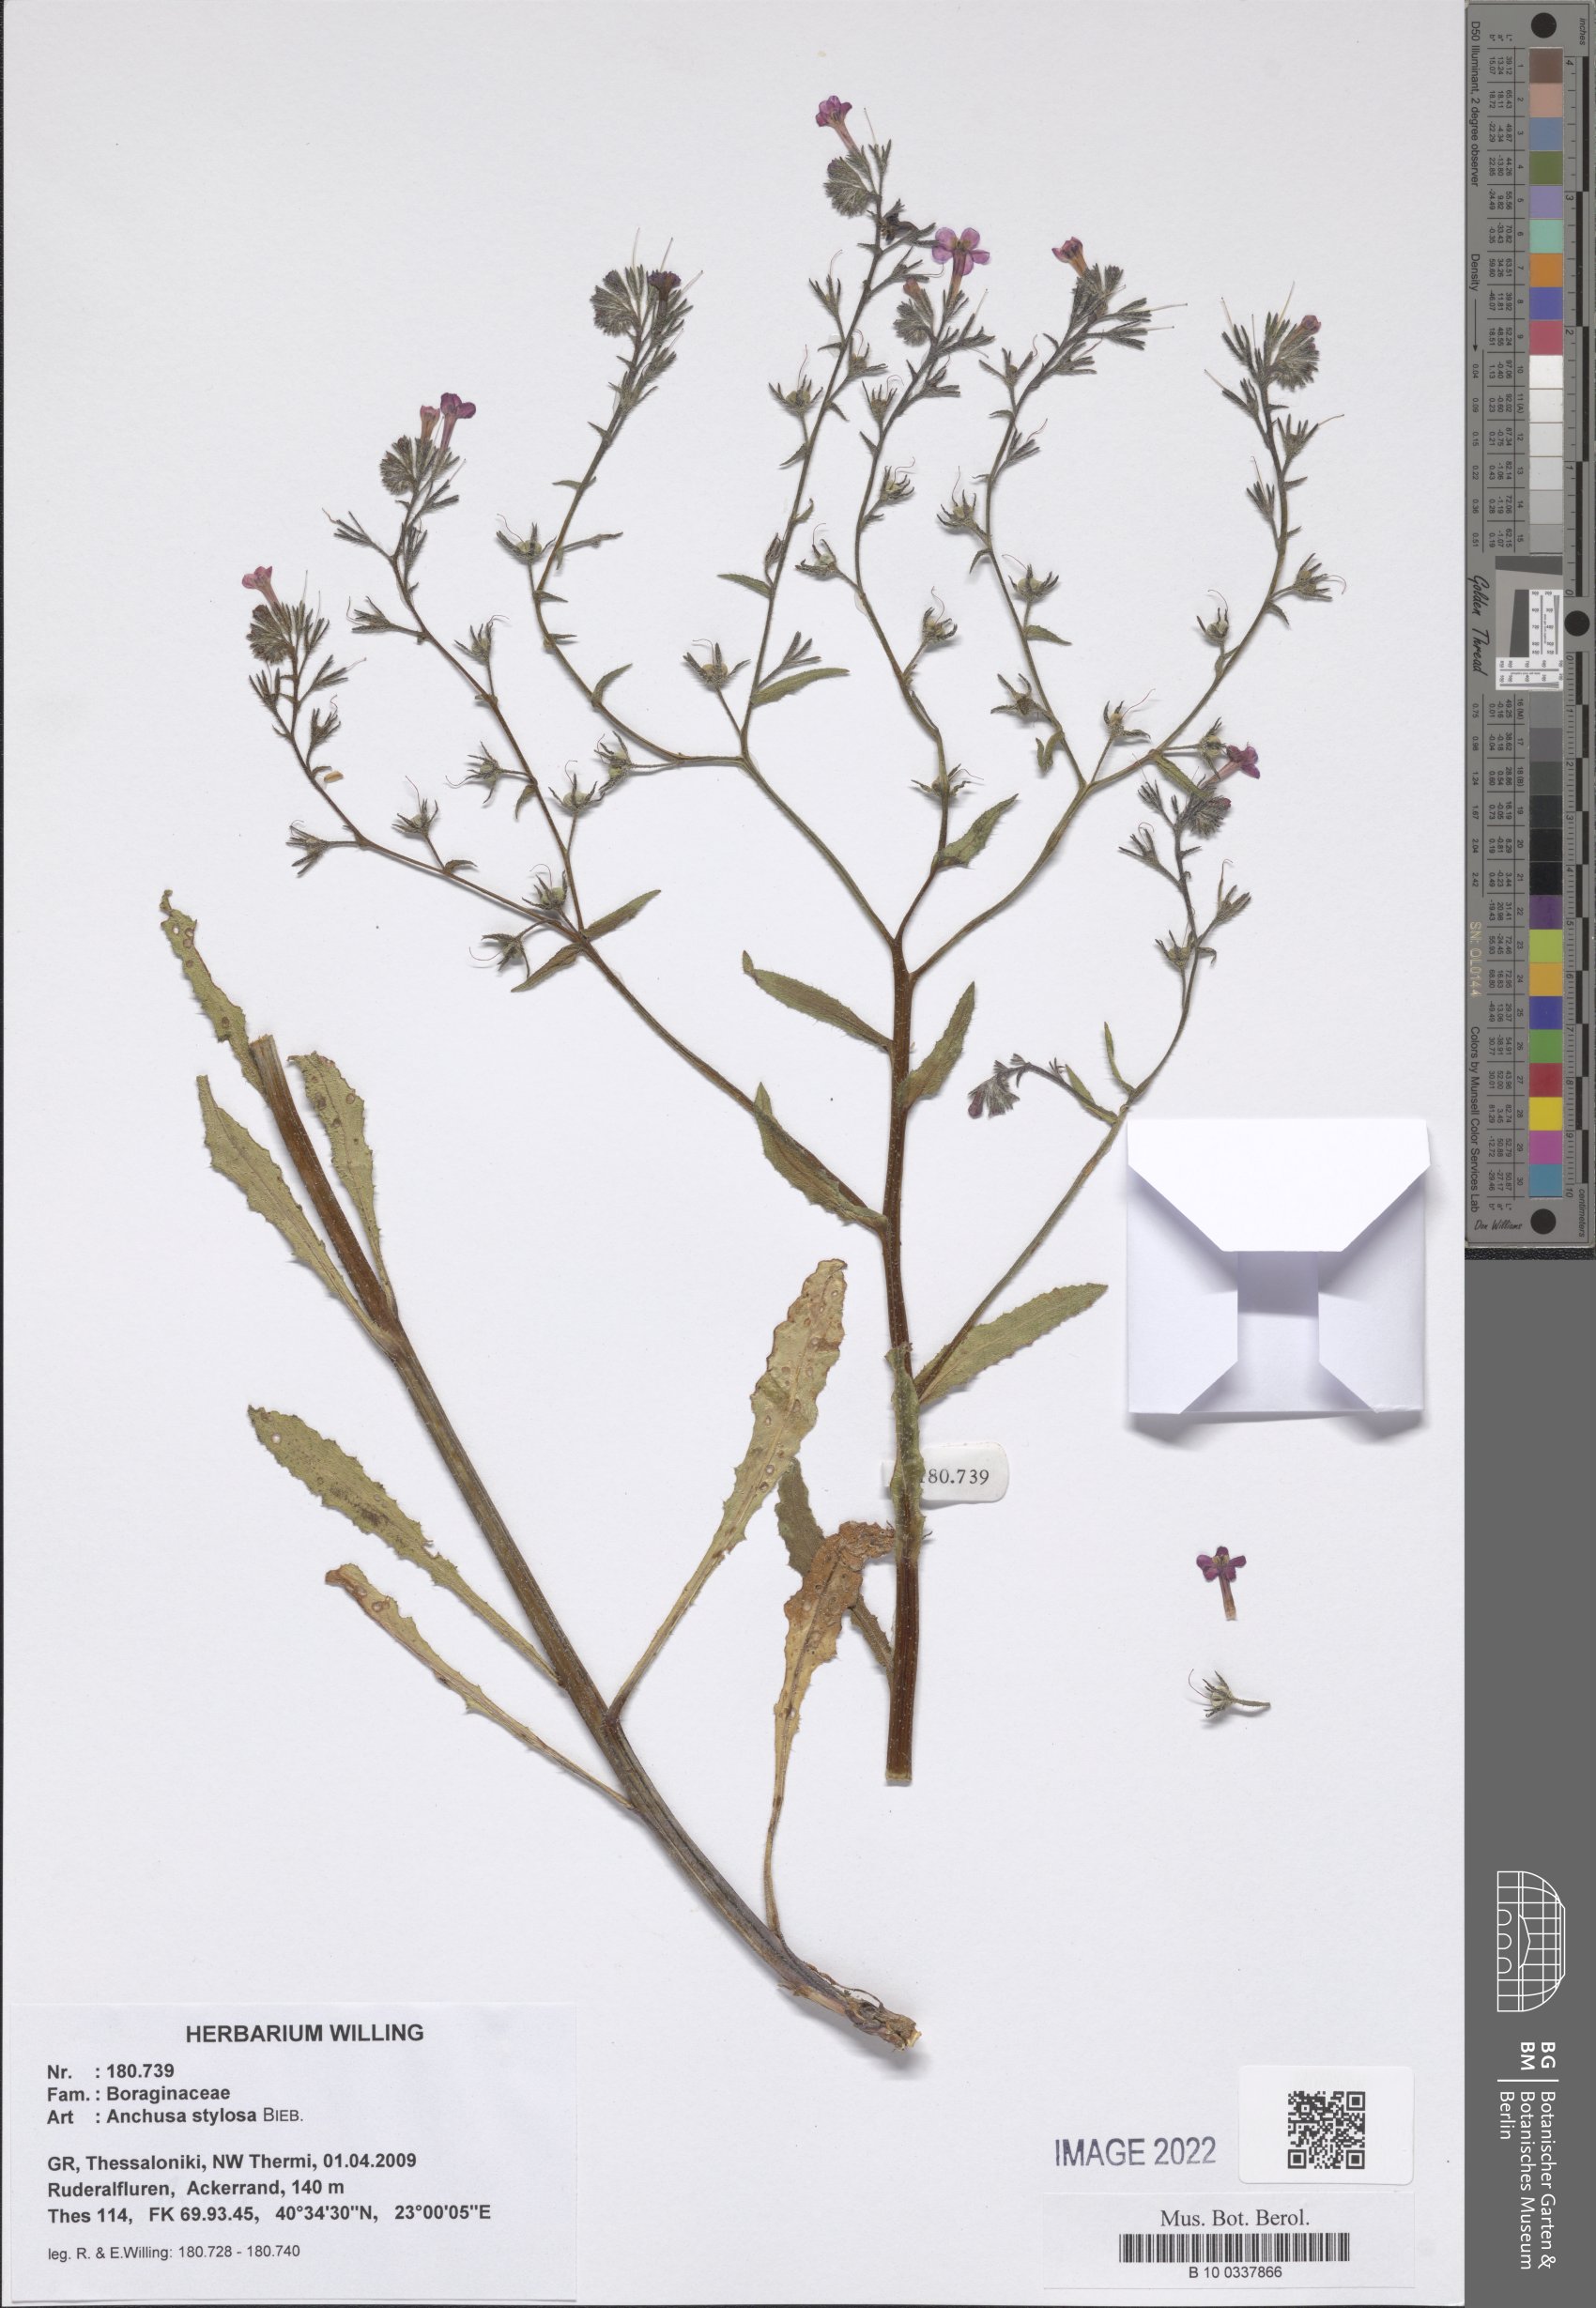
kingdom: Plantae
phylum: Tracheophyta
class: Magnoliopsida
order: Boraginales
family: Boraginaceae
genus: Anchusa
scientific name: Anchusa stylosa
